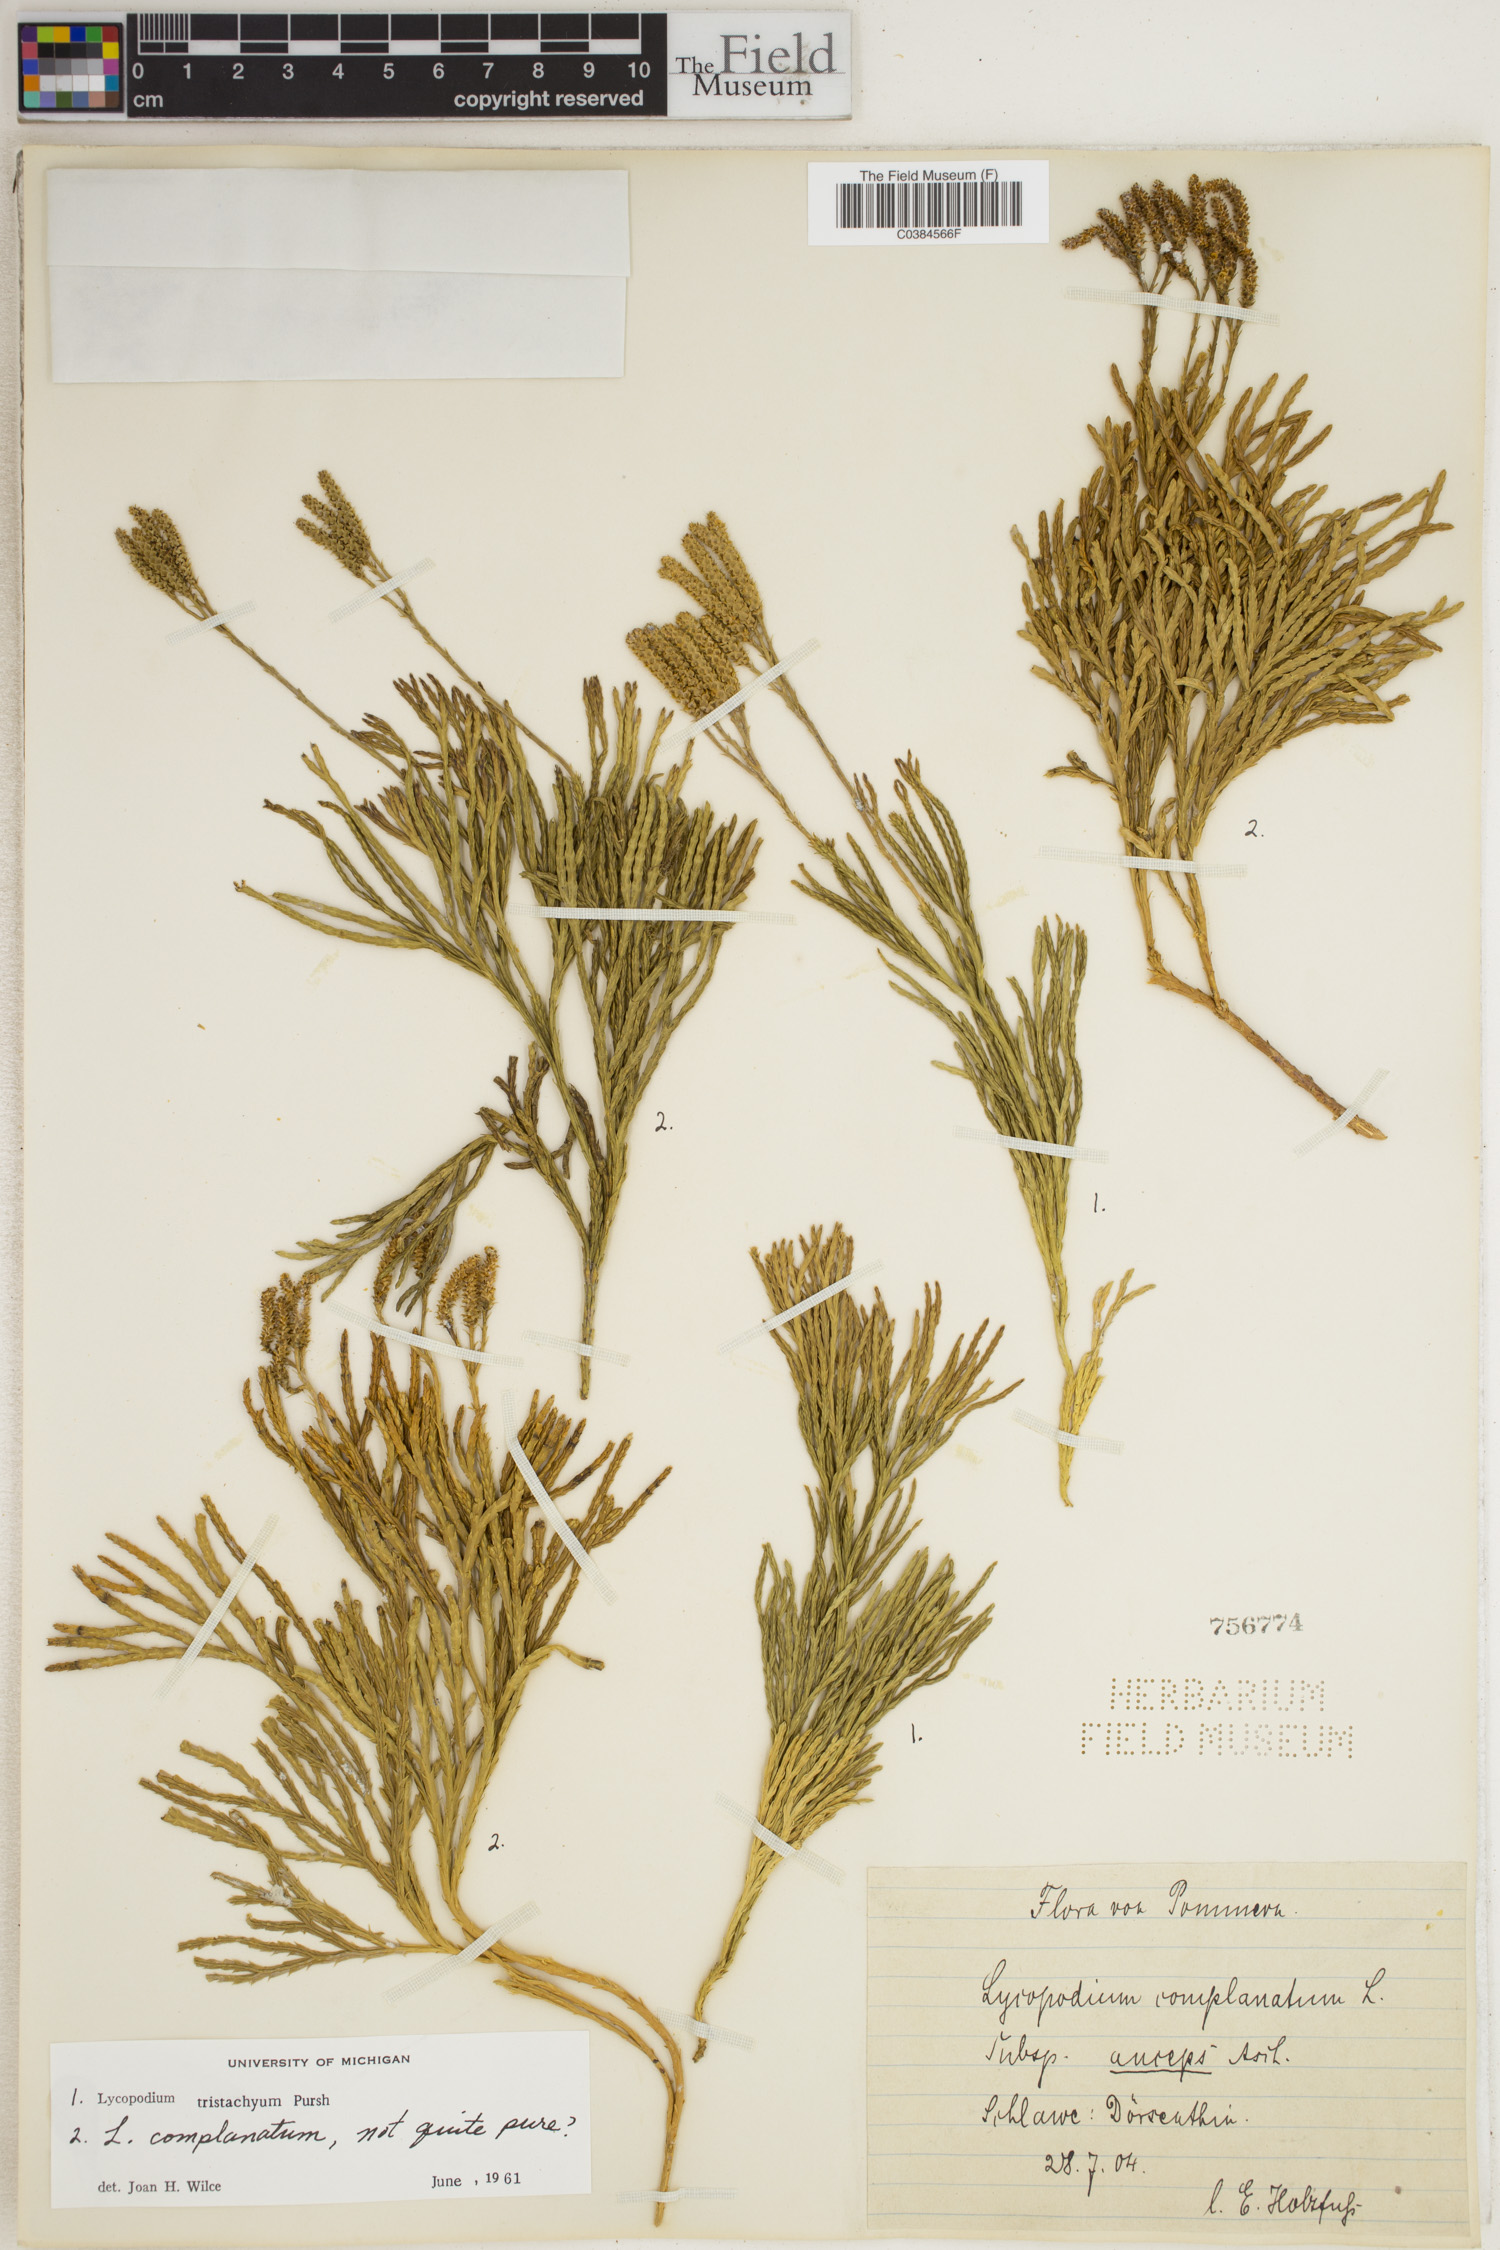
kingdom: Plantae
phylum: Tracheophyta
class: Lycopodiopsida
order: Lycopodiales
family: Lycopodiaceae
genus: Diphasiastrum
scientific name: Diphasiastrum tristachyum
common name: Blue ground-cedar
